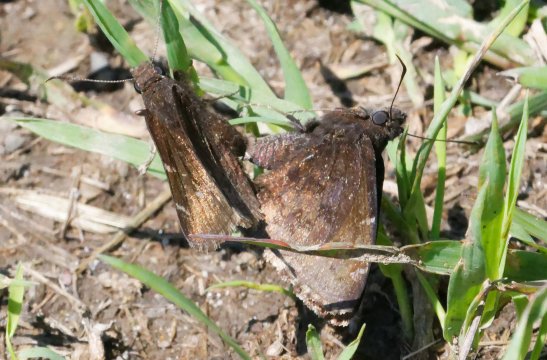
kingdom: Animalia
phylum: Arthropoda
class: Insecta
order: Lepidoptera
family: Hesperiidae
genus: Autochton
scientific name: Autochton
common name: Northern Cloudywing
